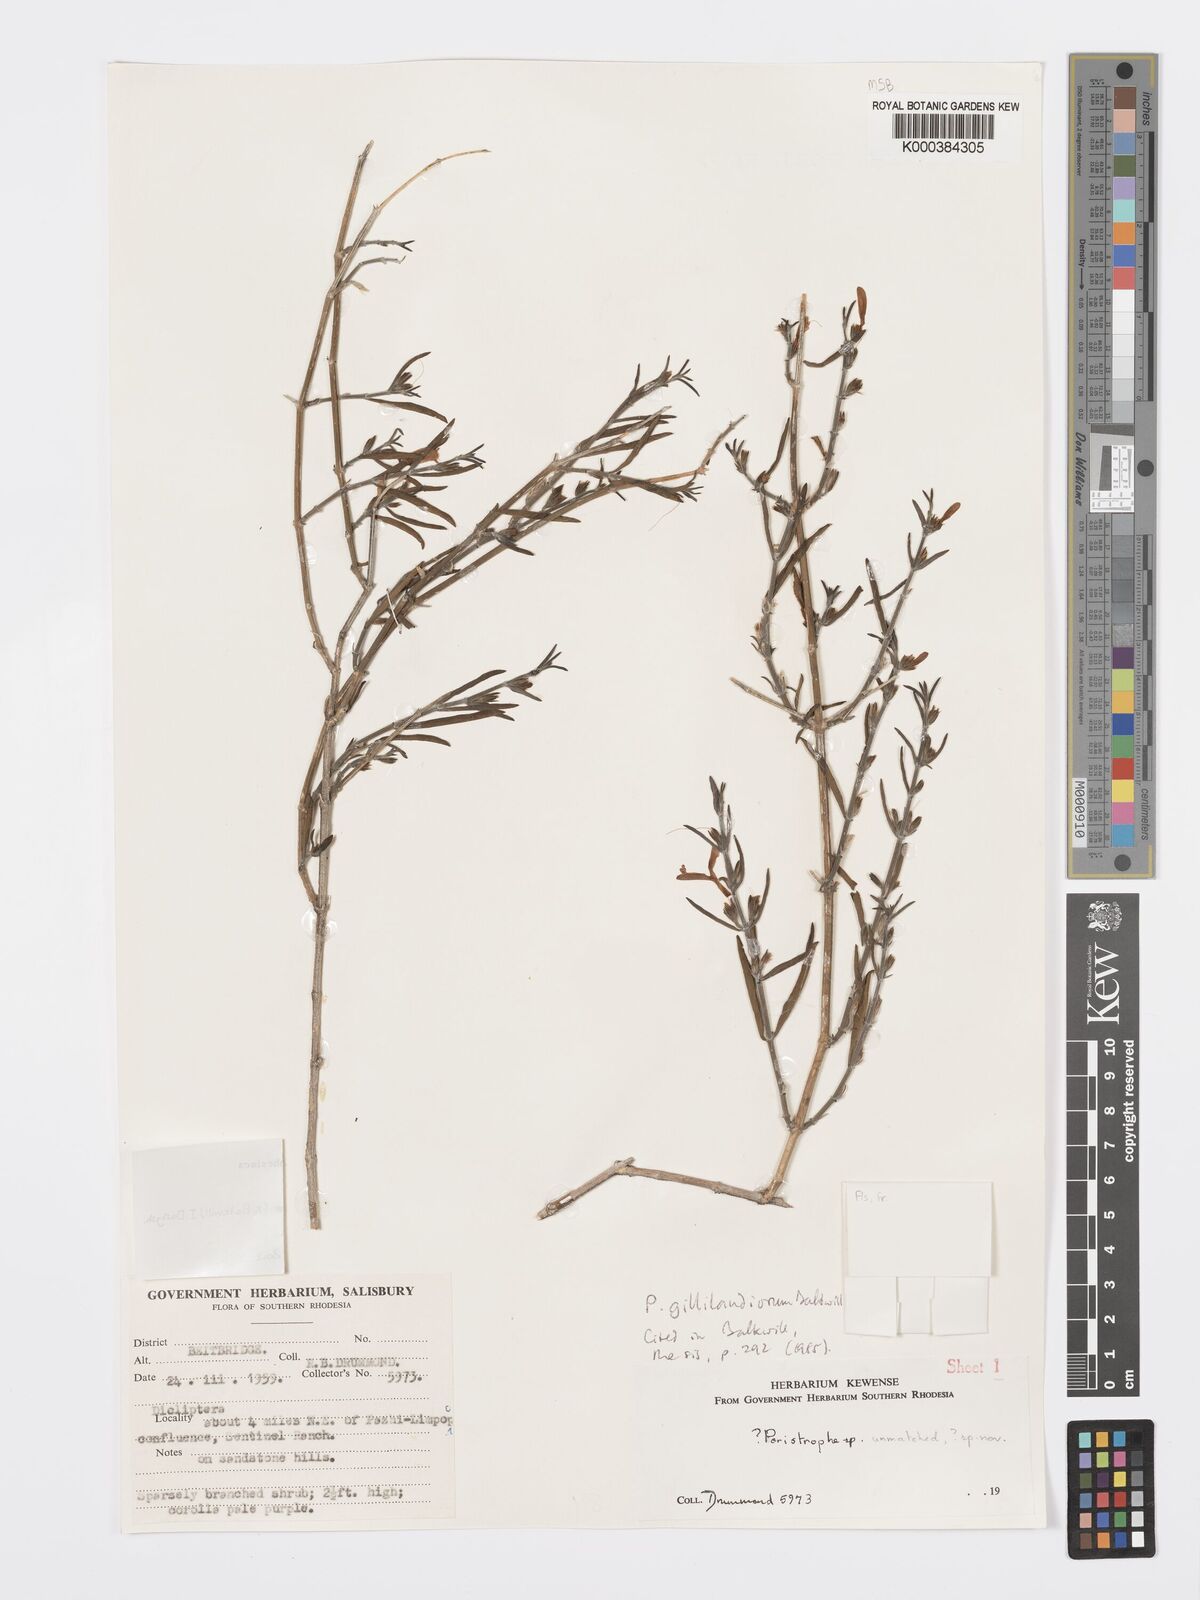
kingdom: Plantae
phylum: Tracheophyta
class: Magnoliopsida
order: Lamiales
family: Acanthaceae
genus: Dicliptera
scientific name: Dicliptera gillilandiorum
